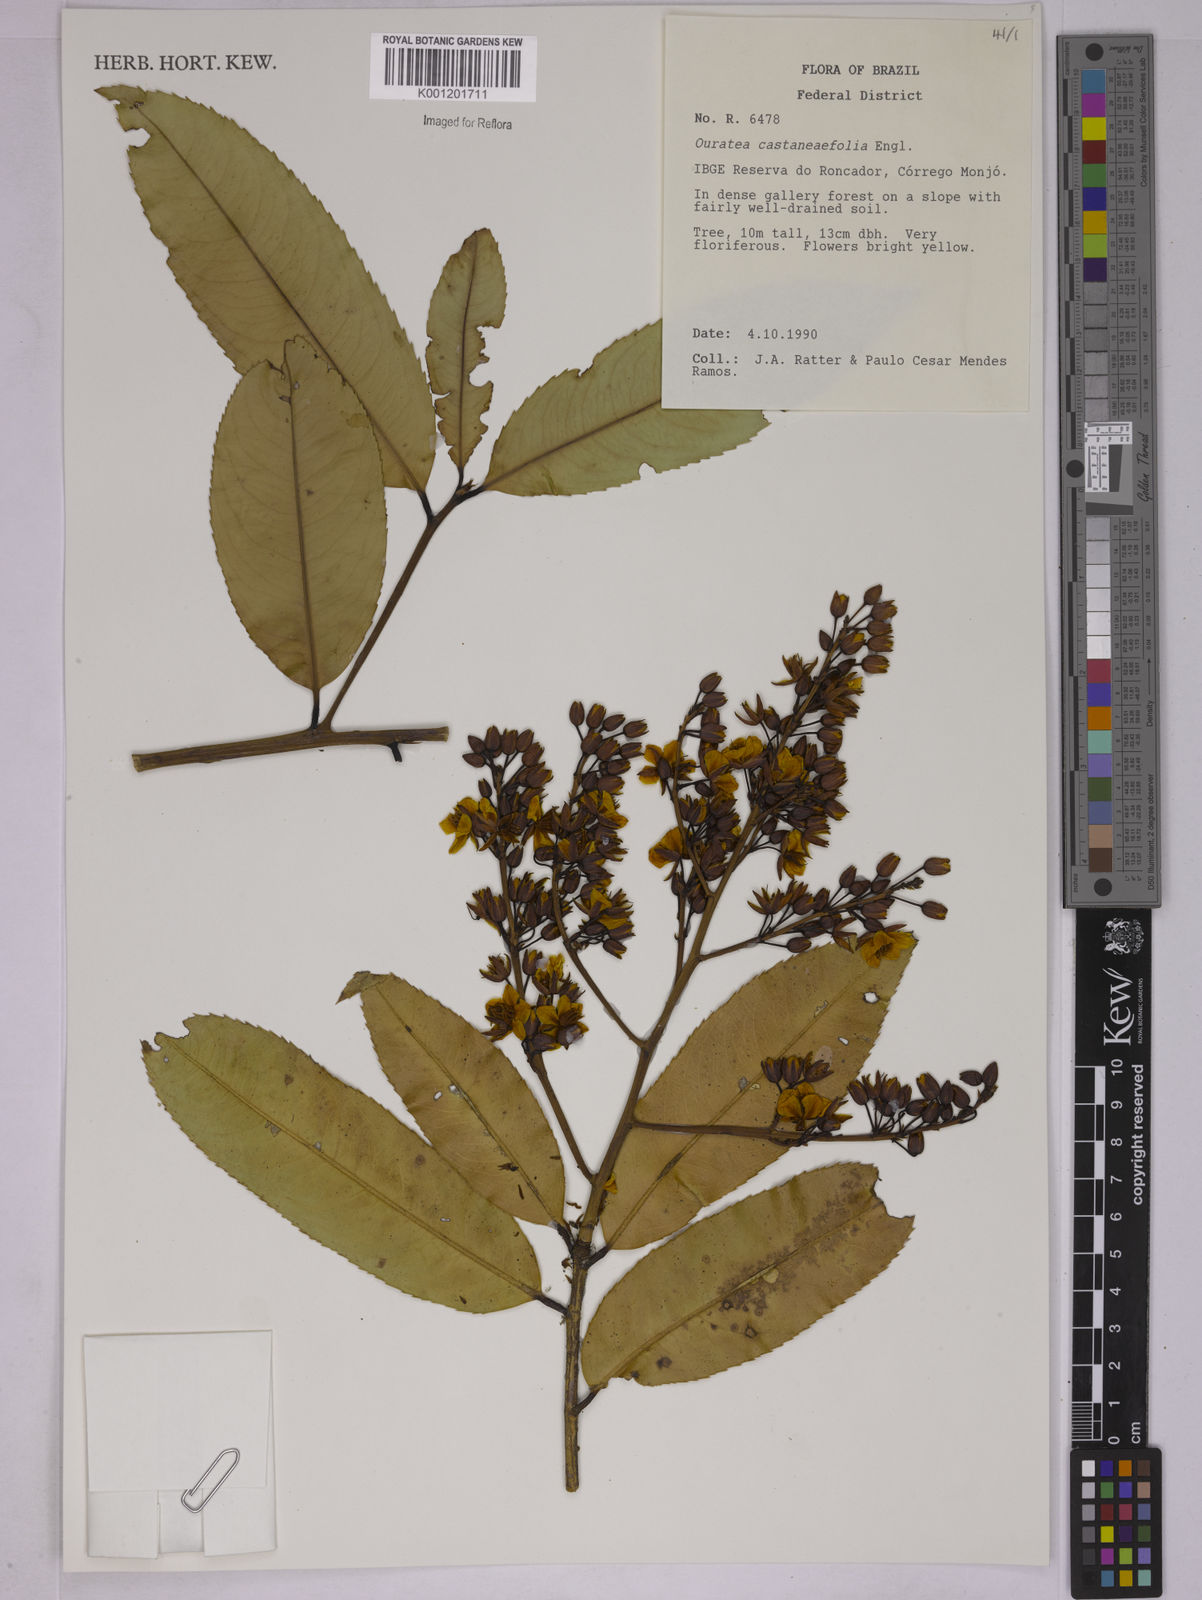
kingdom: Plantae
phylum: Tracheophyta
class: Magnoliopsida
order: Malpighiales
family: Ochnaceae
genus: Ouratea
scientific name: Ouratea castaneifolia
